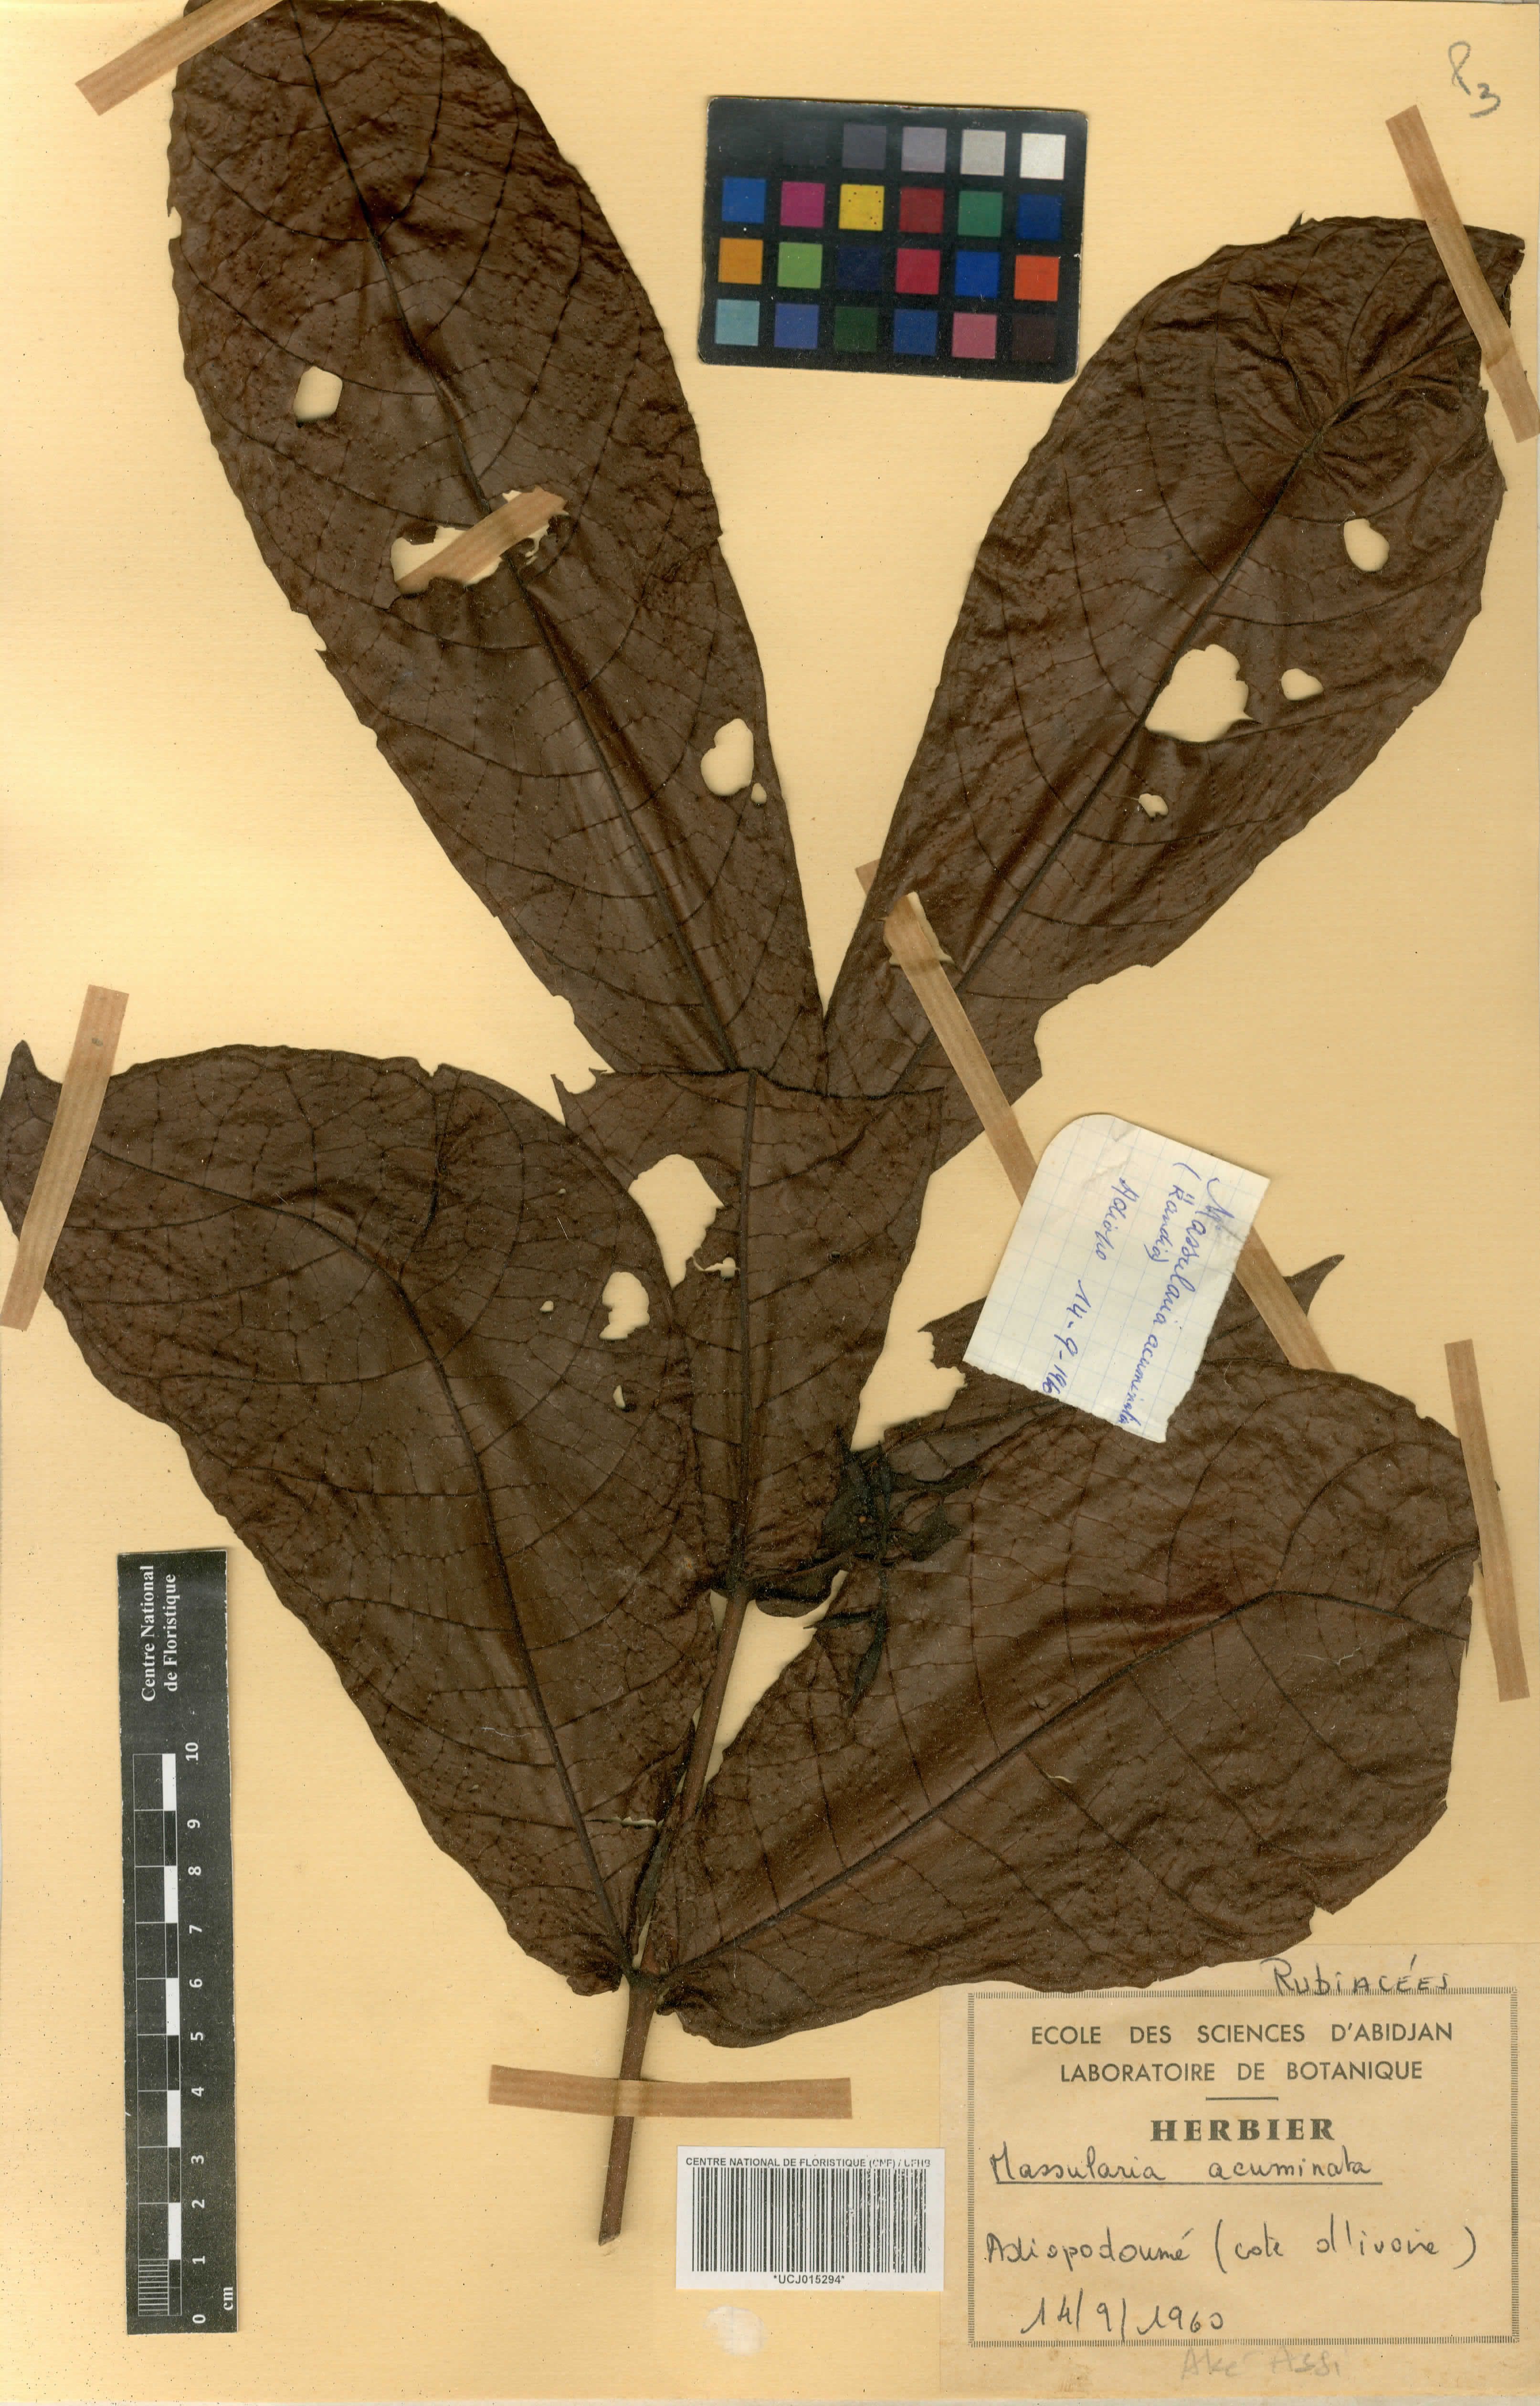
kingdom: Plantae
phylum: Tracheophyta
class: Magnoliopsida
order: Gentianales
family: Rubiaceae
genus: Massularia
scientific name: Massularia acuminata
